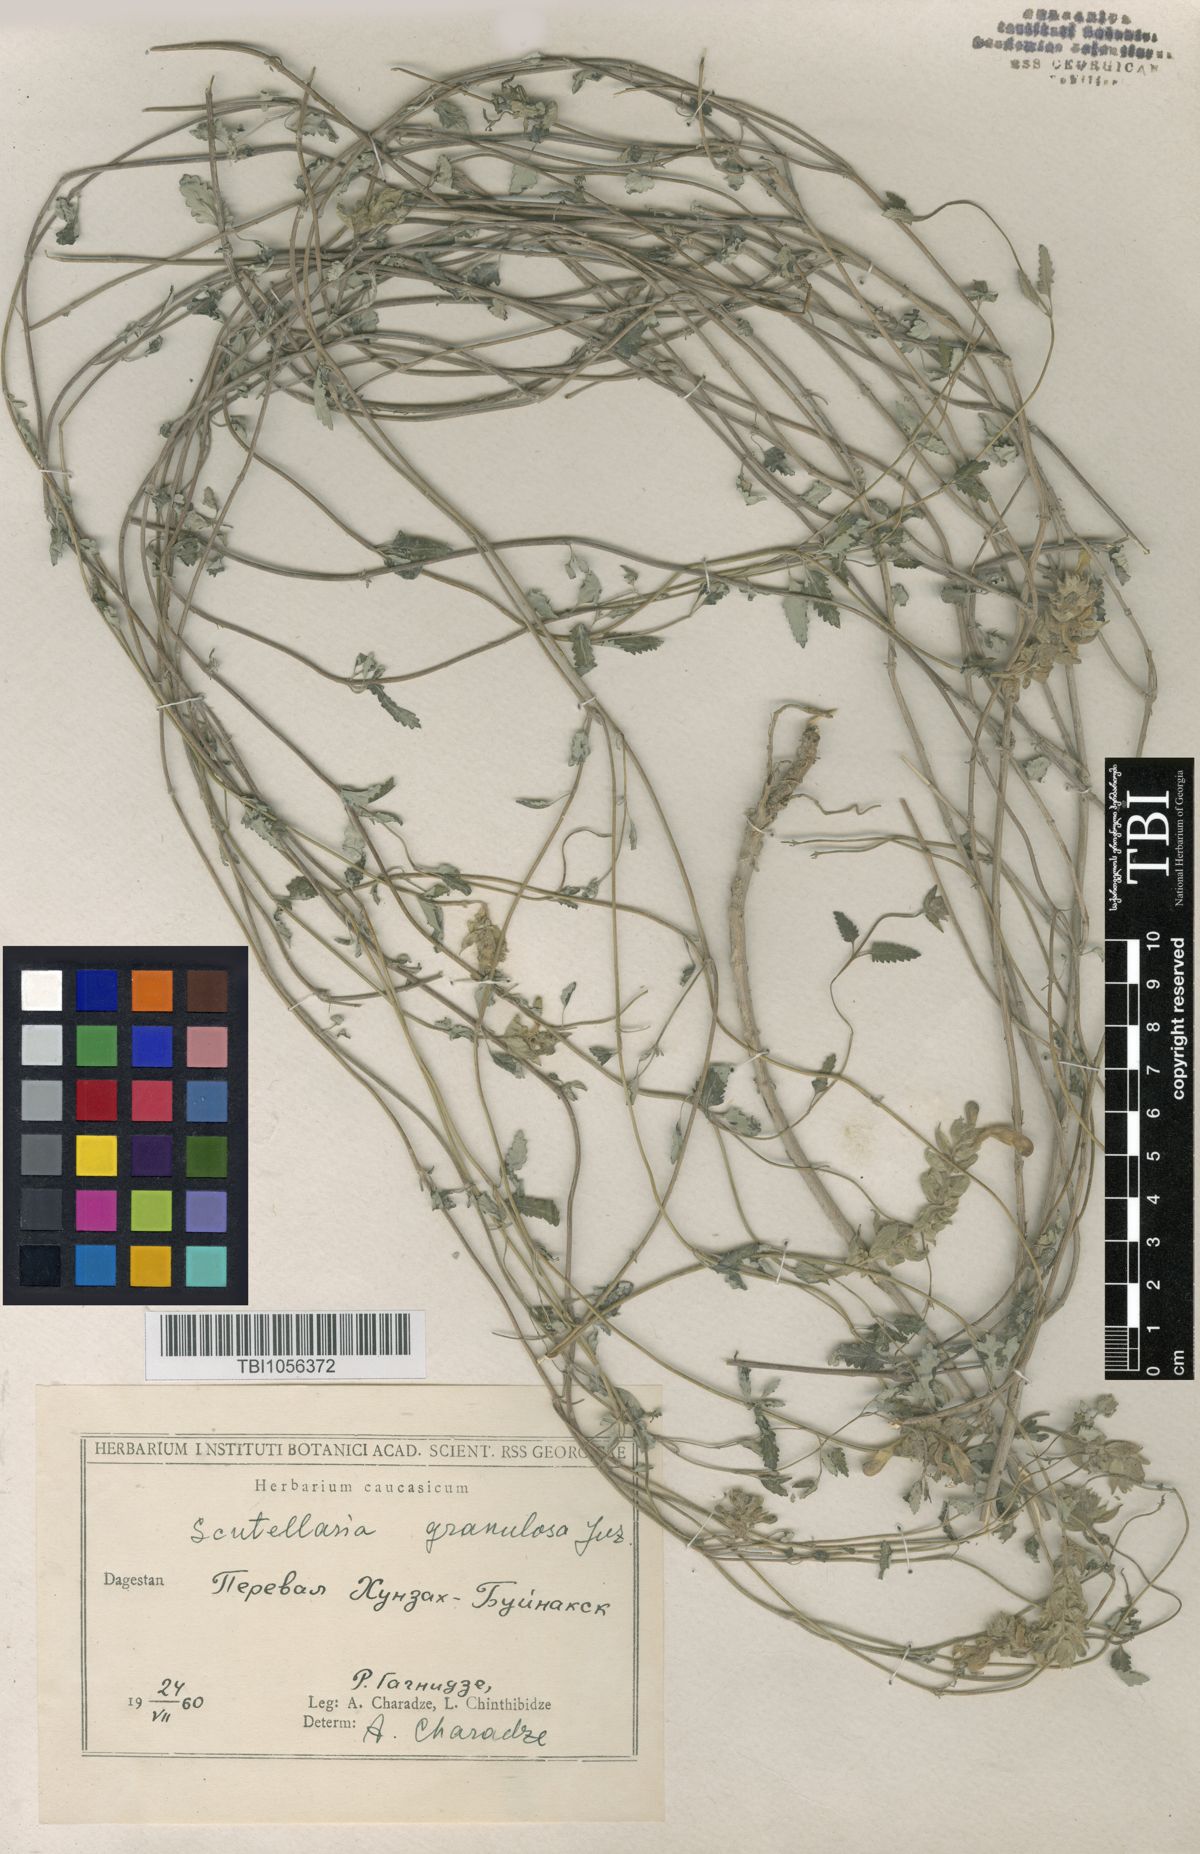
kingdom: Plantae
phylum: Tracheophyta
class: Magnoliopsida
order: Lamiales
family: Lamiaceae
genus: Scutellaria
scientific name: Scutellaria granulosa
